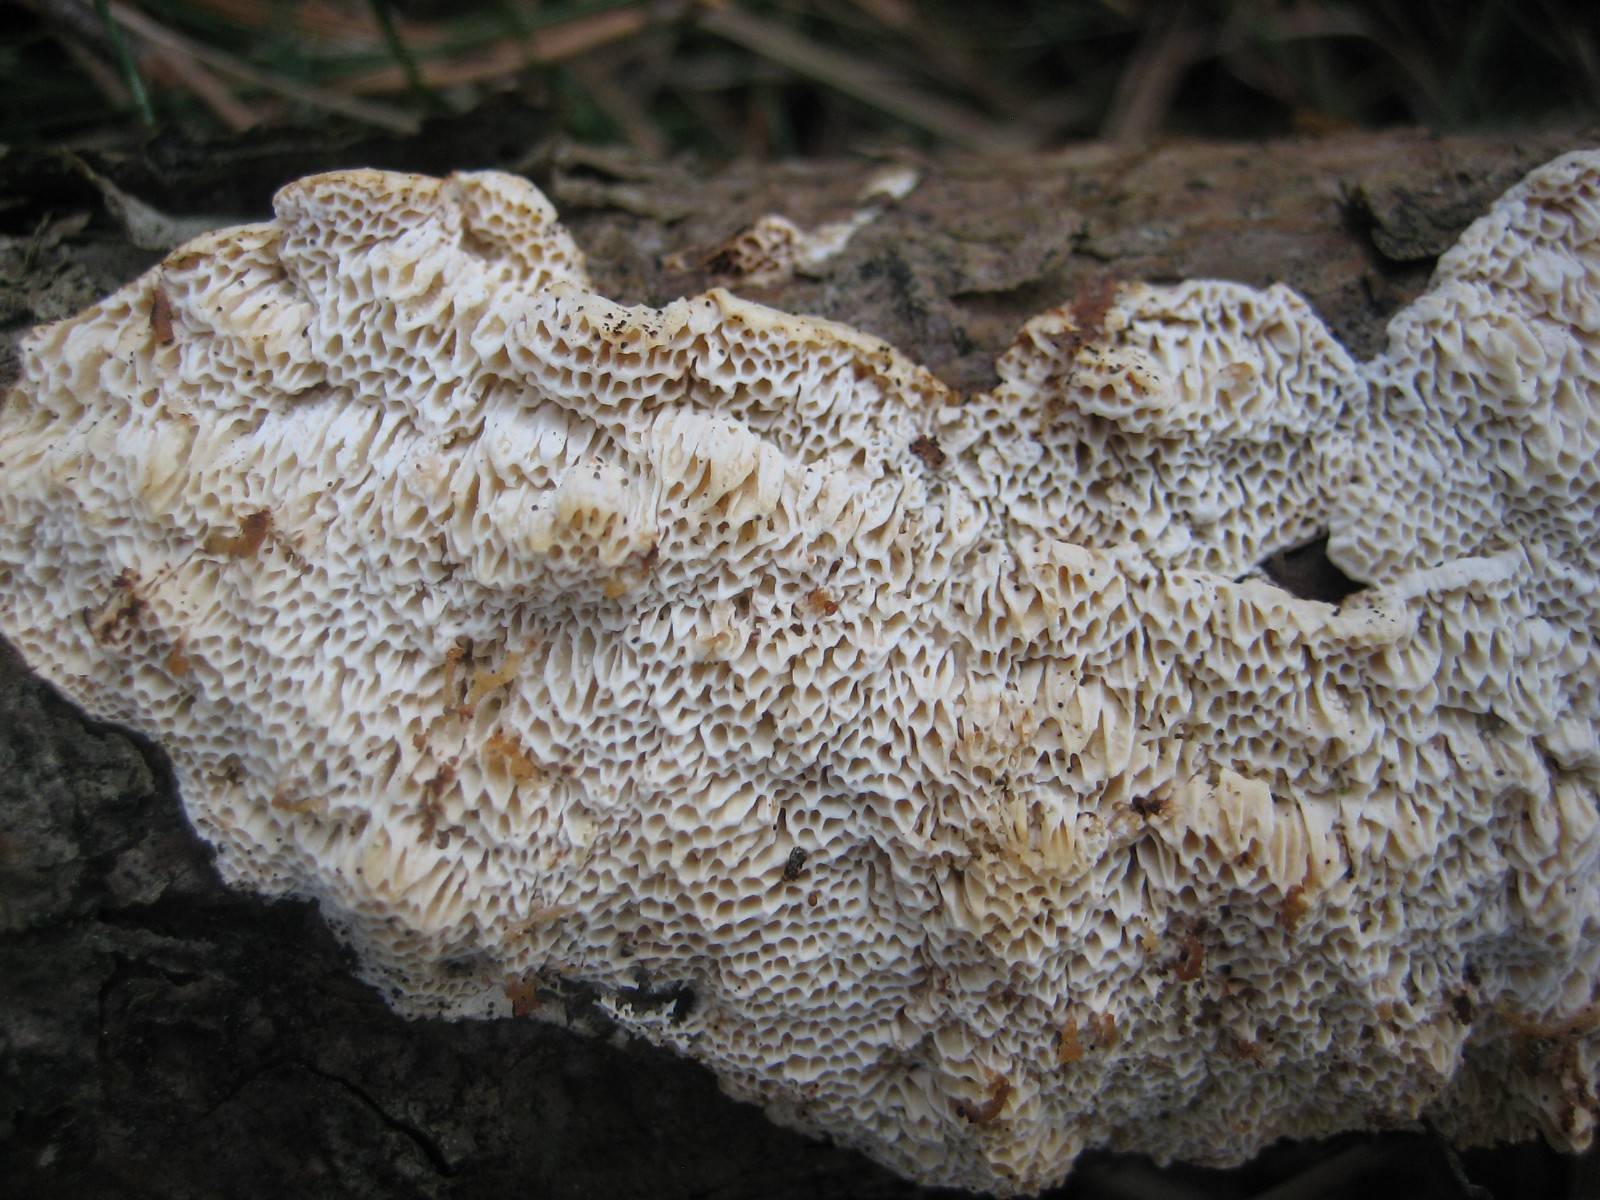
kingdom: Fungi
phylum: Basidiomycota
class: Agaricomycetes
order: Polyporales
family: Fomitopsidaceae
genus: Fomitopsis
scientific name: Fomitopsis
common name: fyrre-skiveporesvamp
